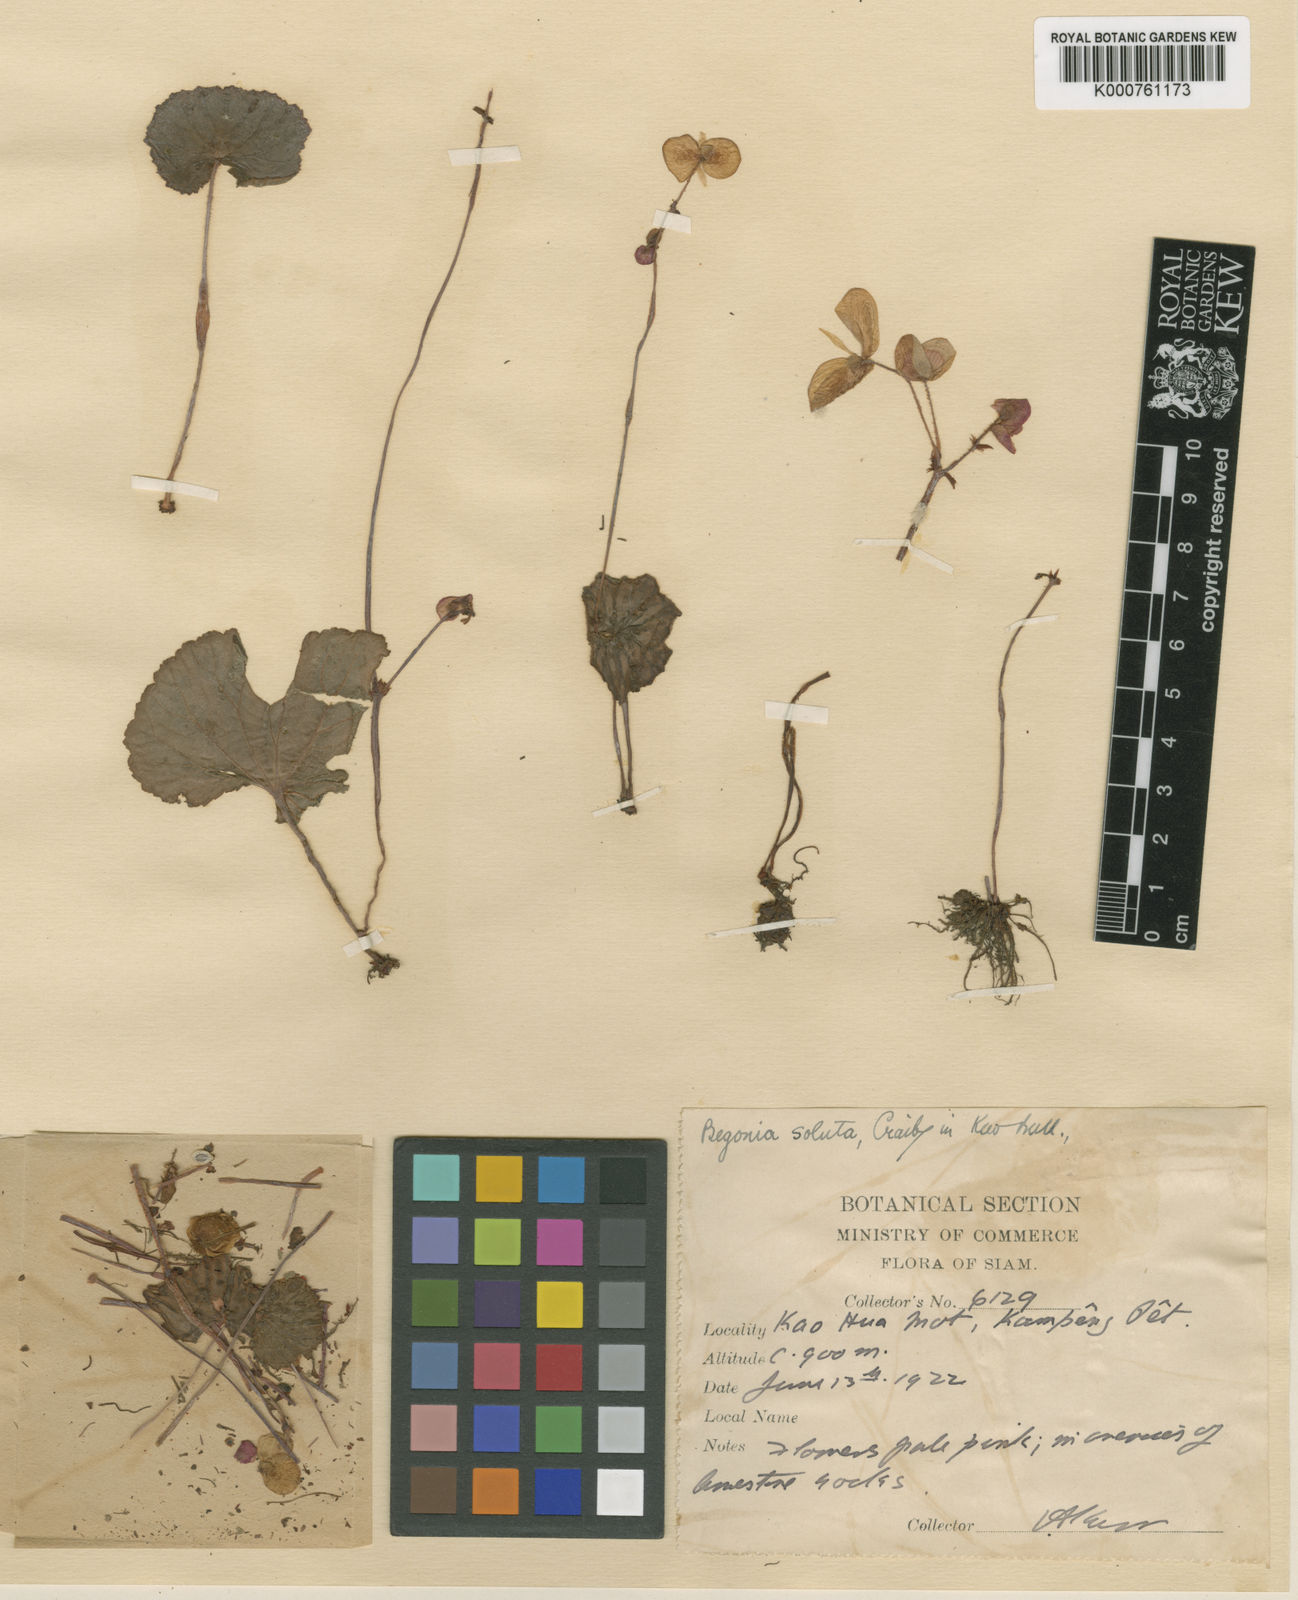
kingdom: Plantae
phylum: Tracheophyta
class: Magnoliopsida
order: Cucurbitales
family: Begoniaceae
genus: Begonia
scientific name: Begonia soluta
